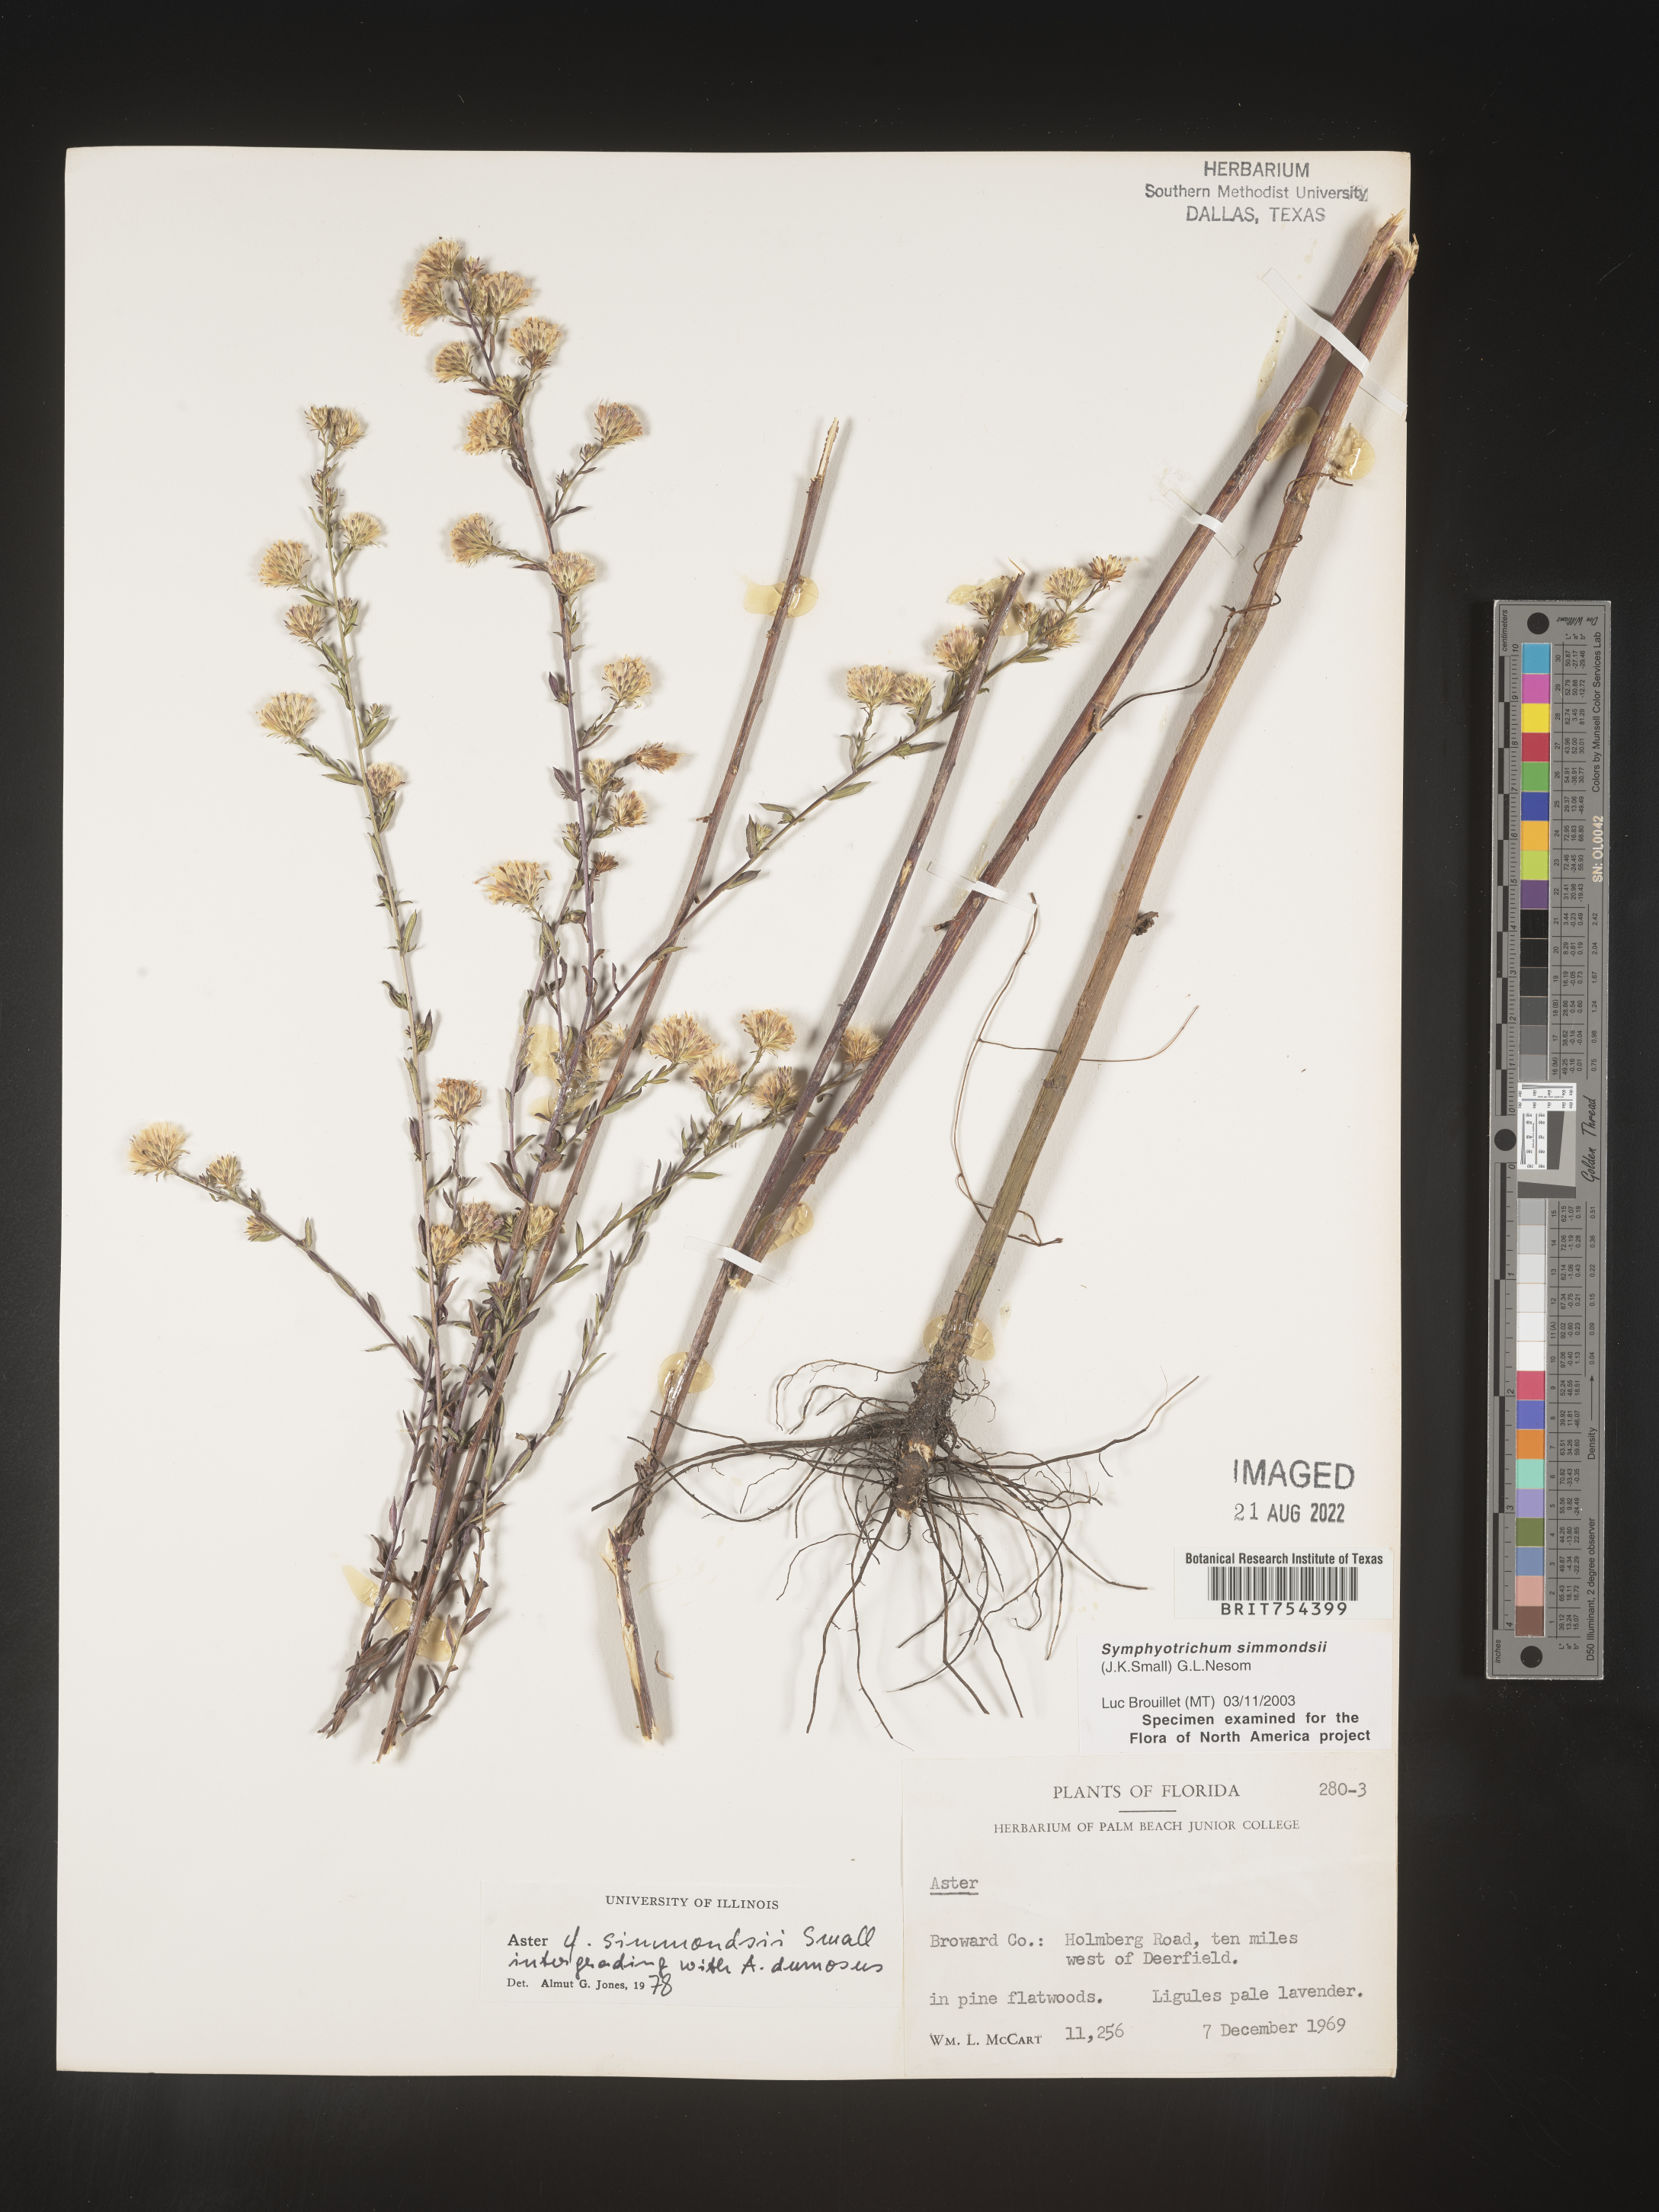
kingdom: Plantae
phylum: Tracheophyta
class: Magnoliopsida
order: Asterales
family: Asteraceae
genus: Symphyotrichum
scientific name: Symphyotrichum simmondsii
